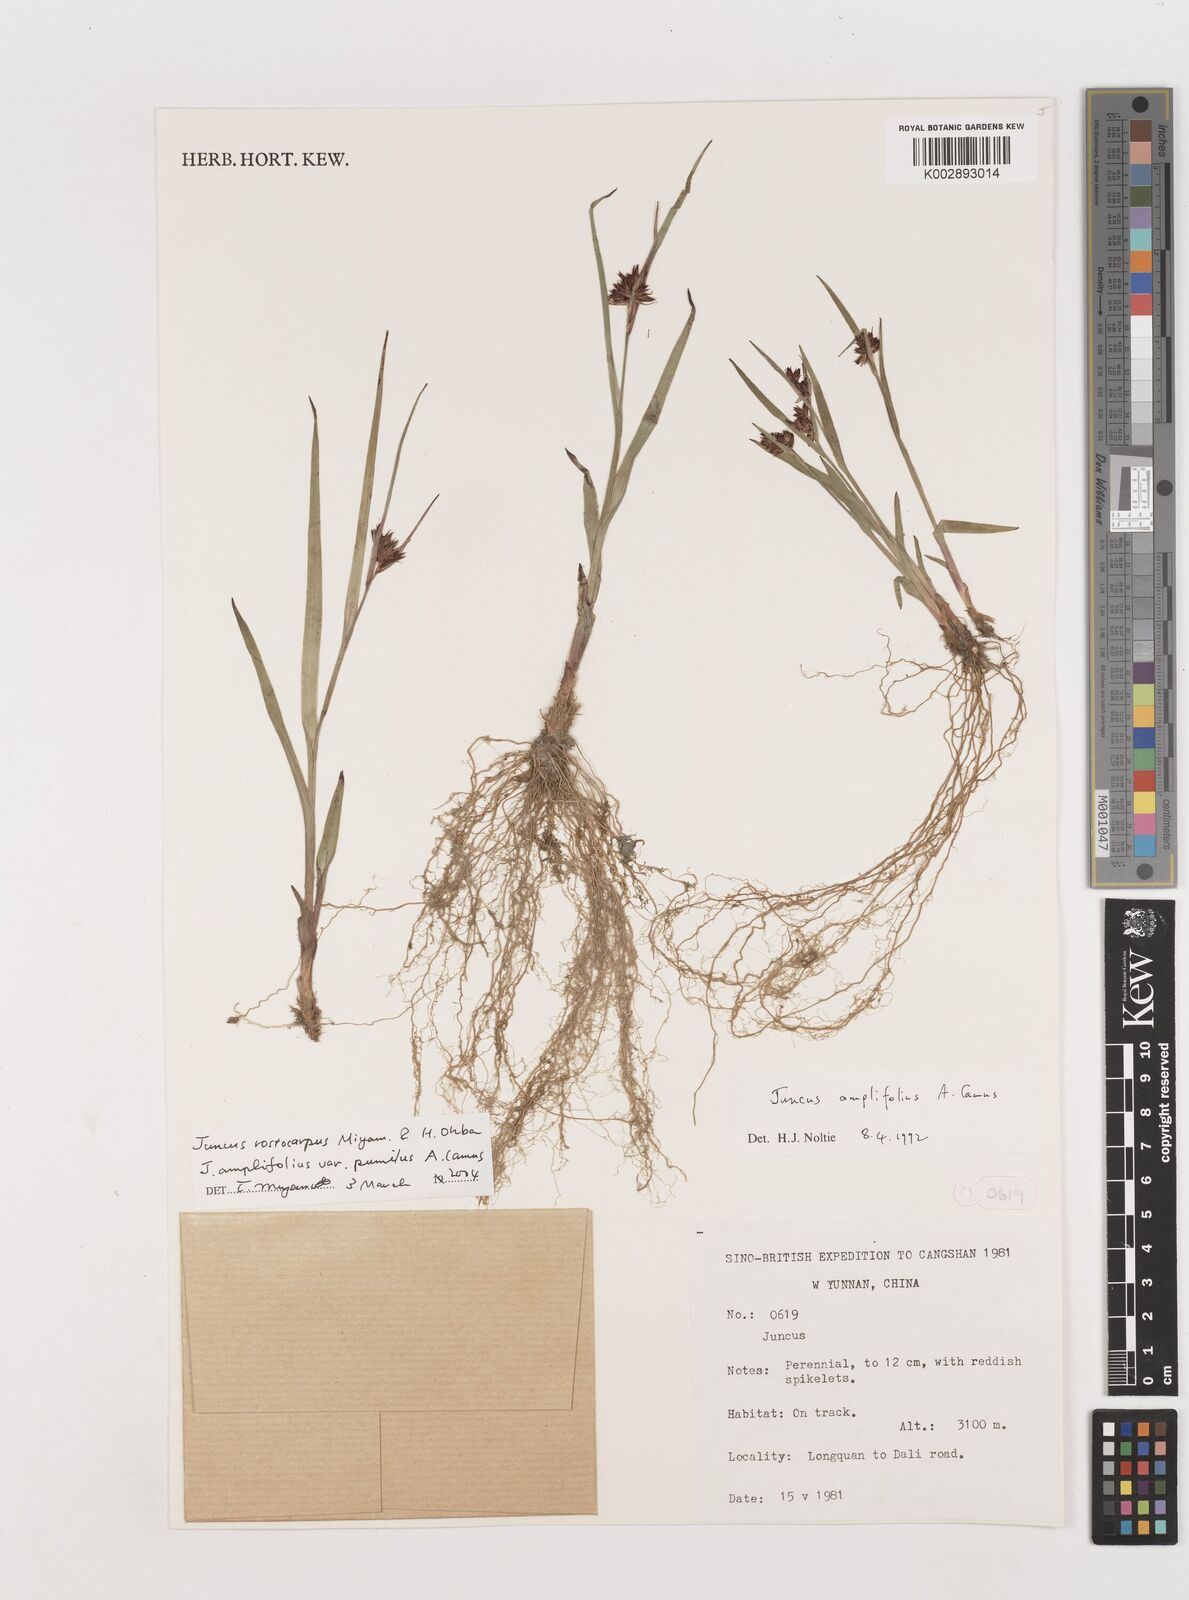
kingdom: Plantae
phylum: Tracheophyta
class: Liliopsida
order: Poales
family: Juncaceae
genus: Juncus
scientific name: Juncus amplifolius
